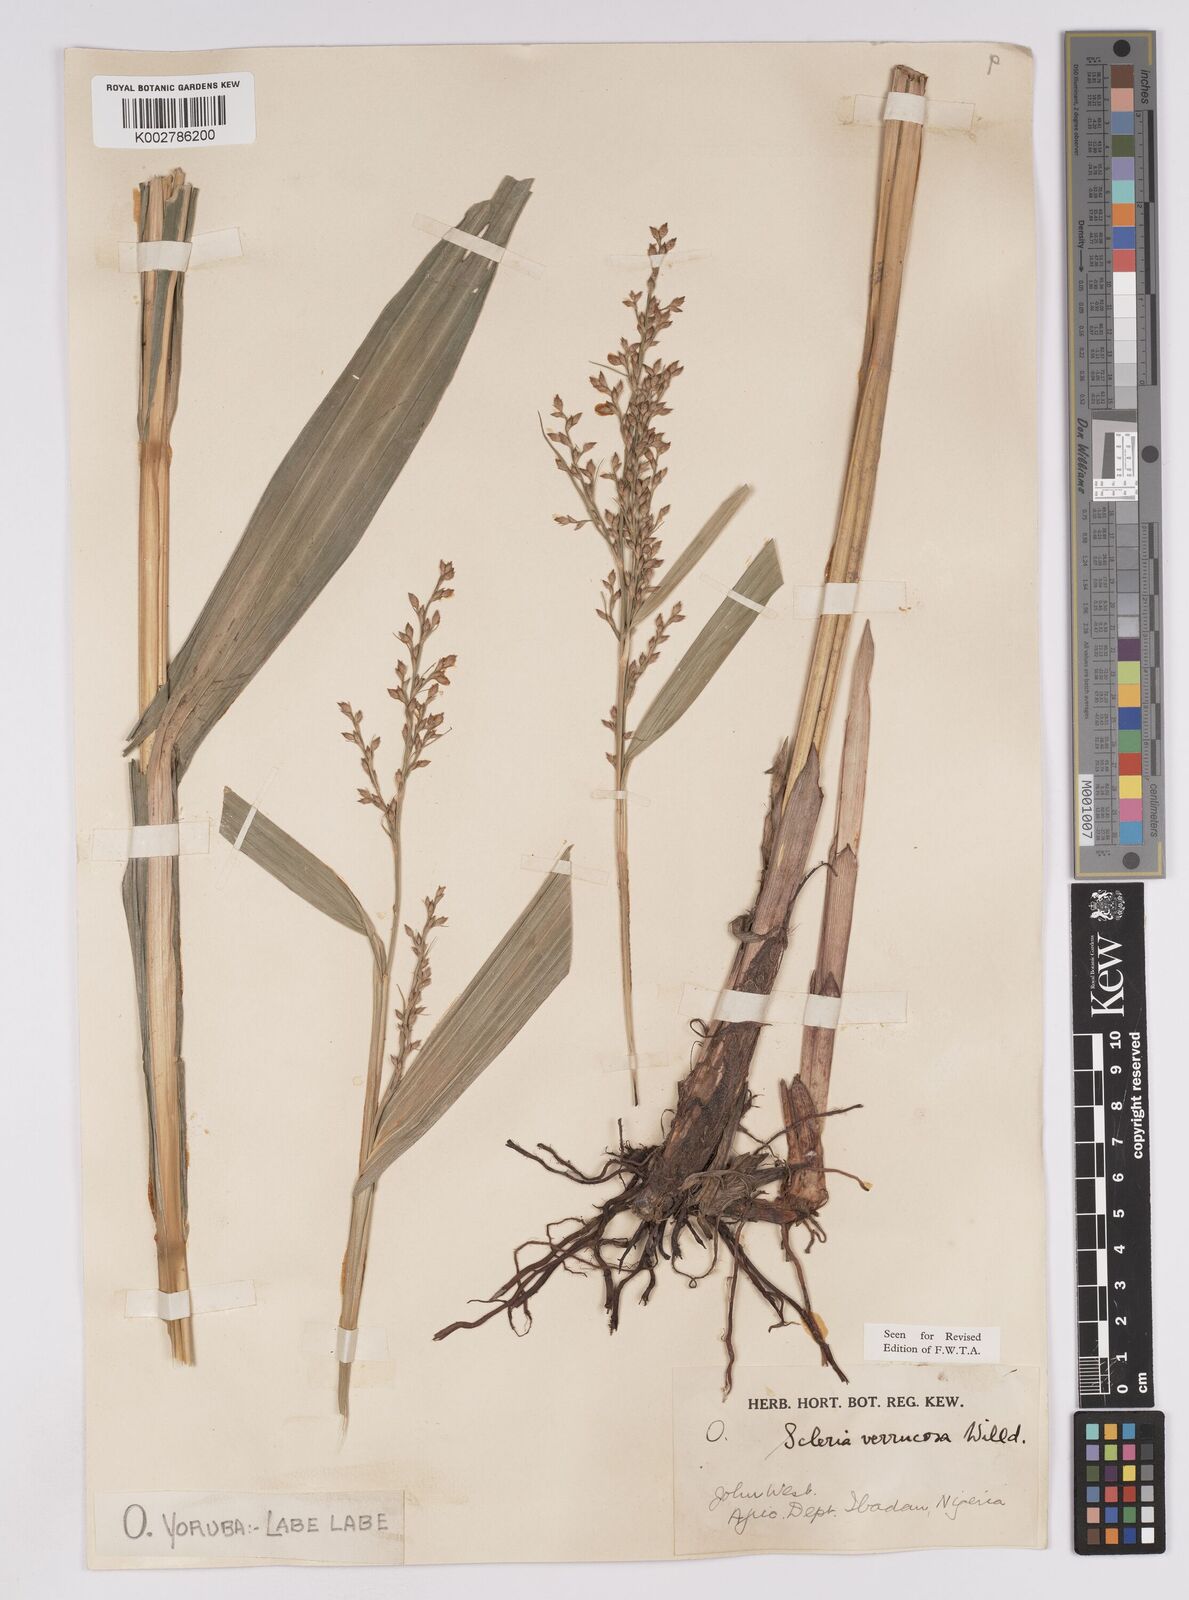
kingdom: Plantae
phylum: Tracheophyta
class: Liliopsida
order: Poales
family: Cyperaceae
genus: Scleria
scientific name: Scleria verrucosa
